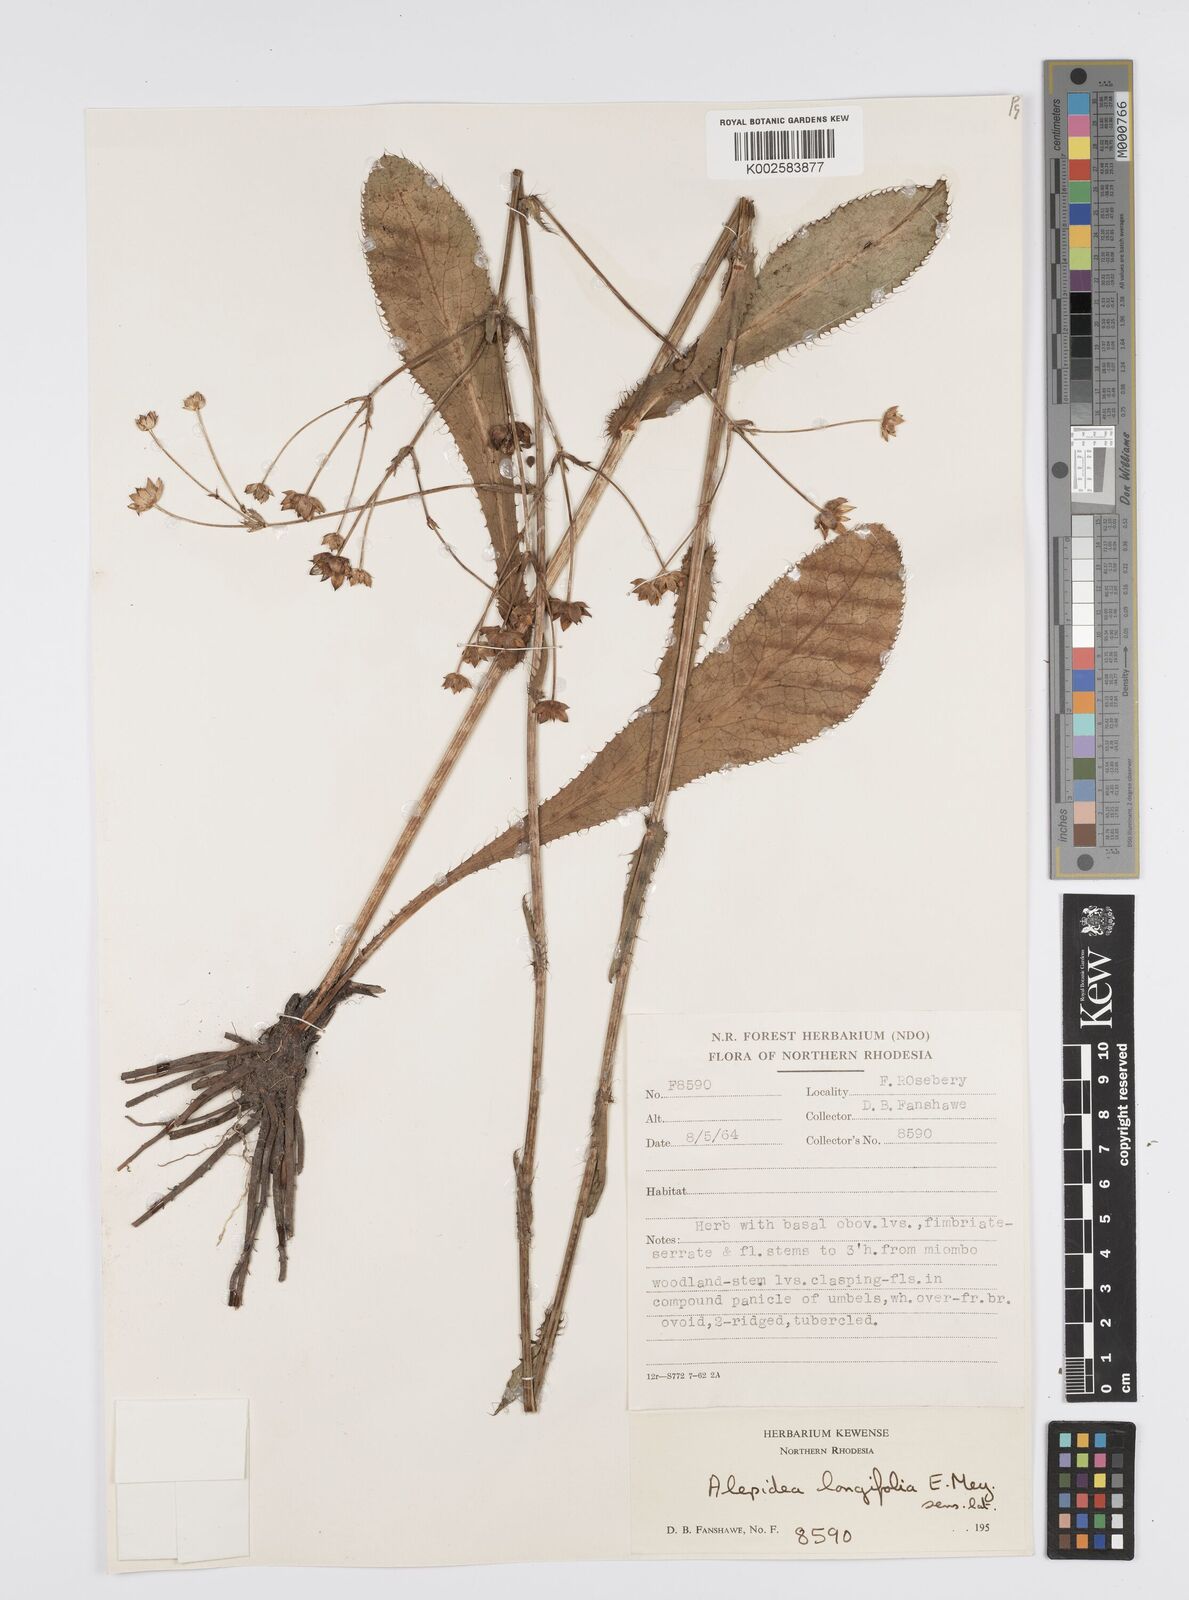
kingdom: Plantae
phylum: Tracheophyta
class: Magnoliopsida
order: Apiales
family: Apiaceae
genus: Alepidea
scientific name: Alepidea
